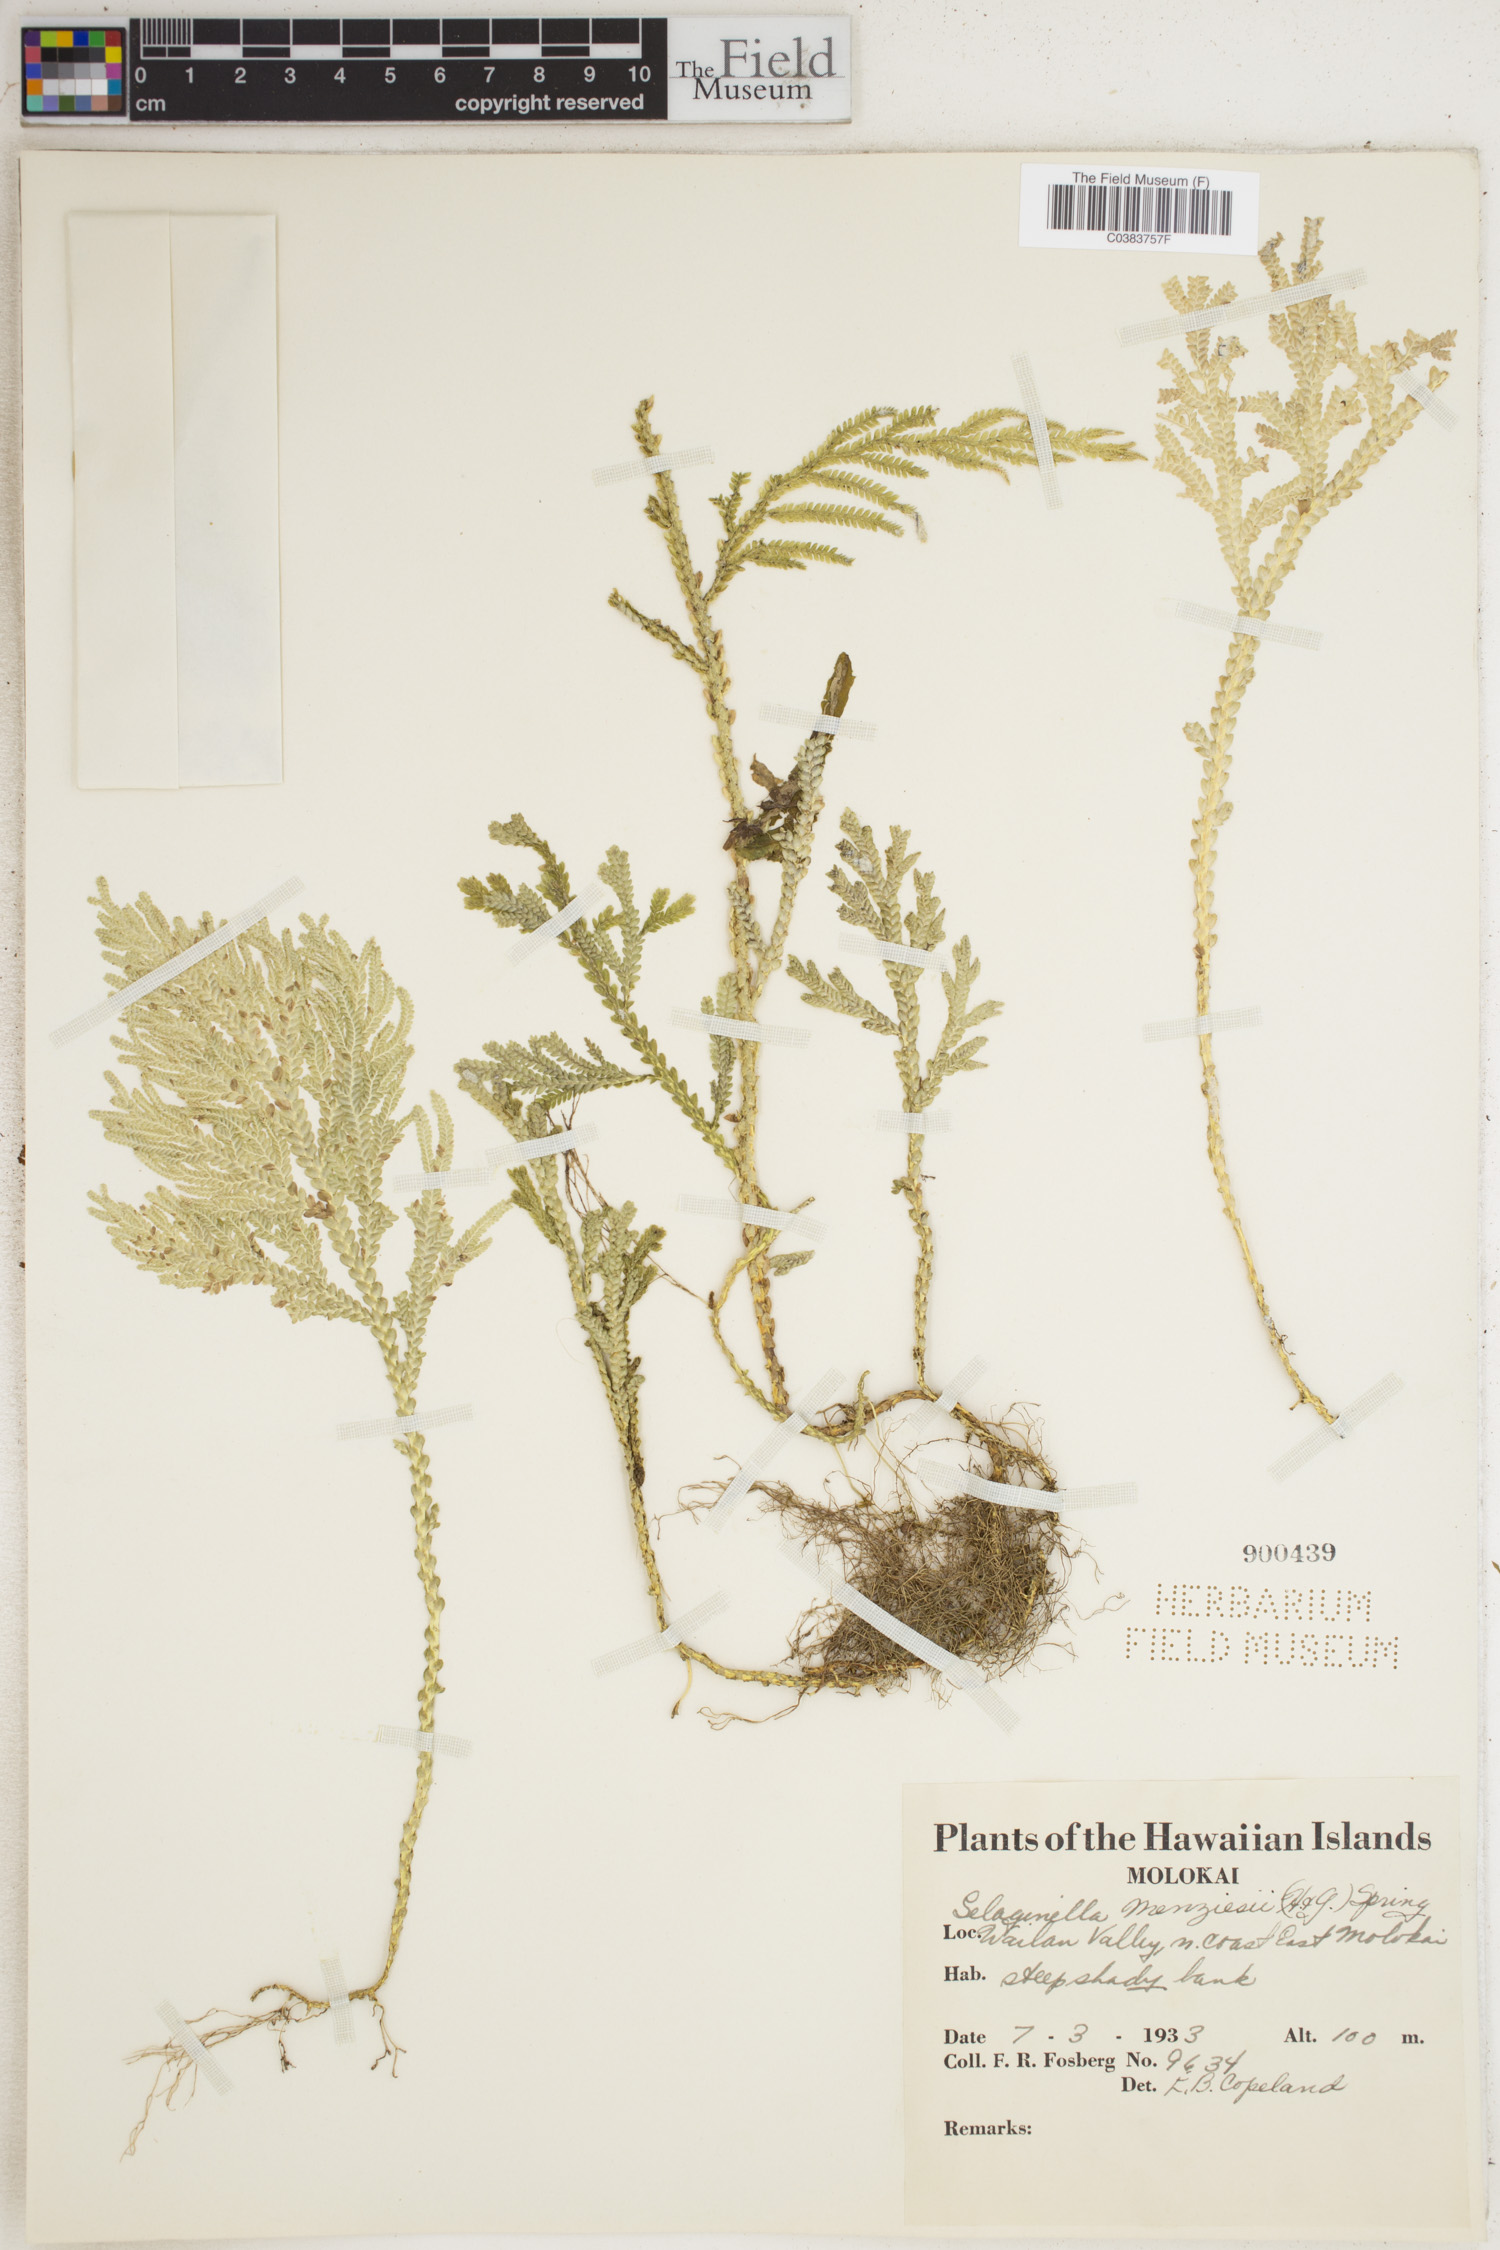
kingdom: Plantae
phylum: Tracheophyta
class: Lycopodiopsida
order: Selaginellales
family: Selaginellaceae
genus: Selaginella
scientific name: Selaginella menziesii
